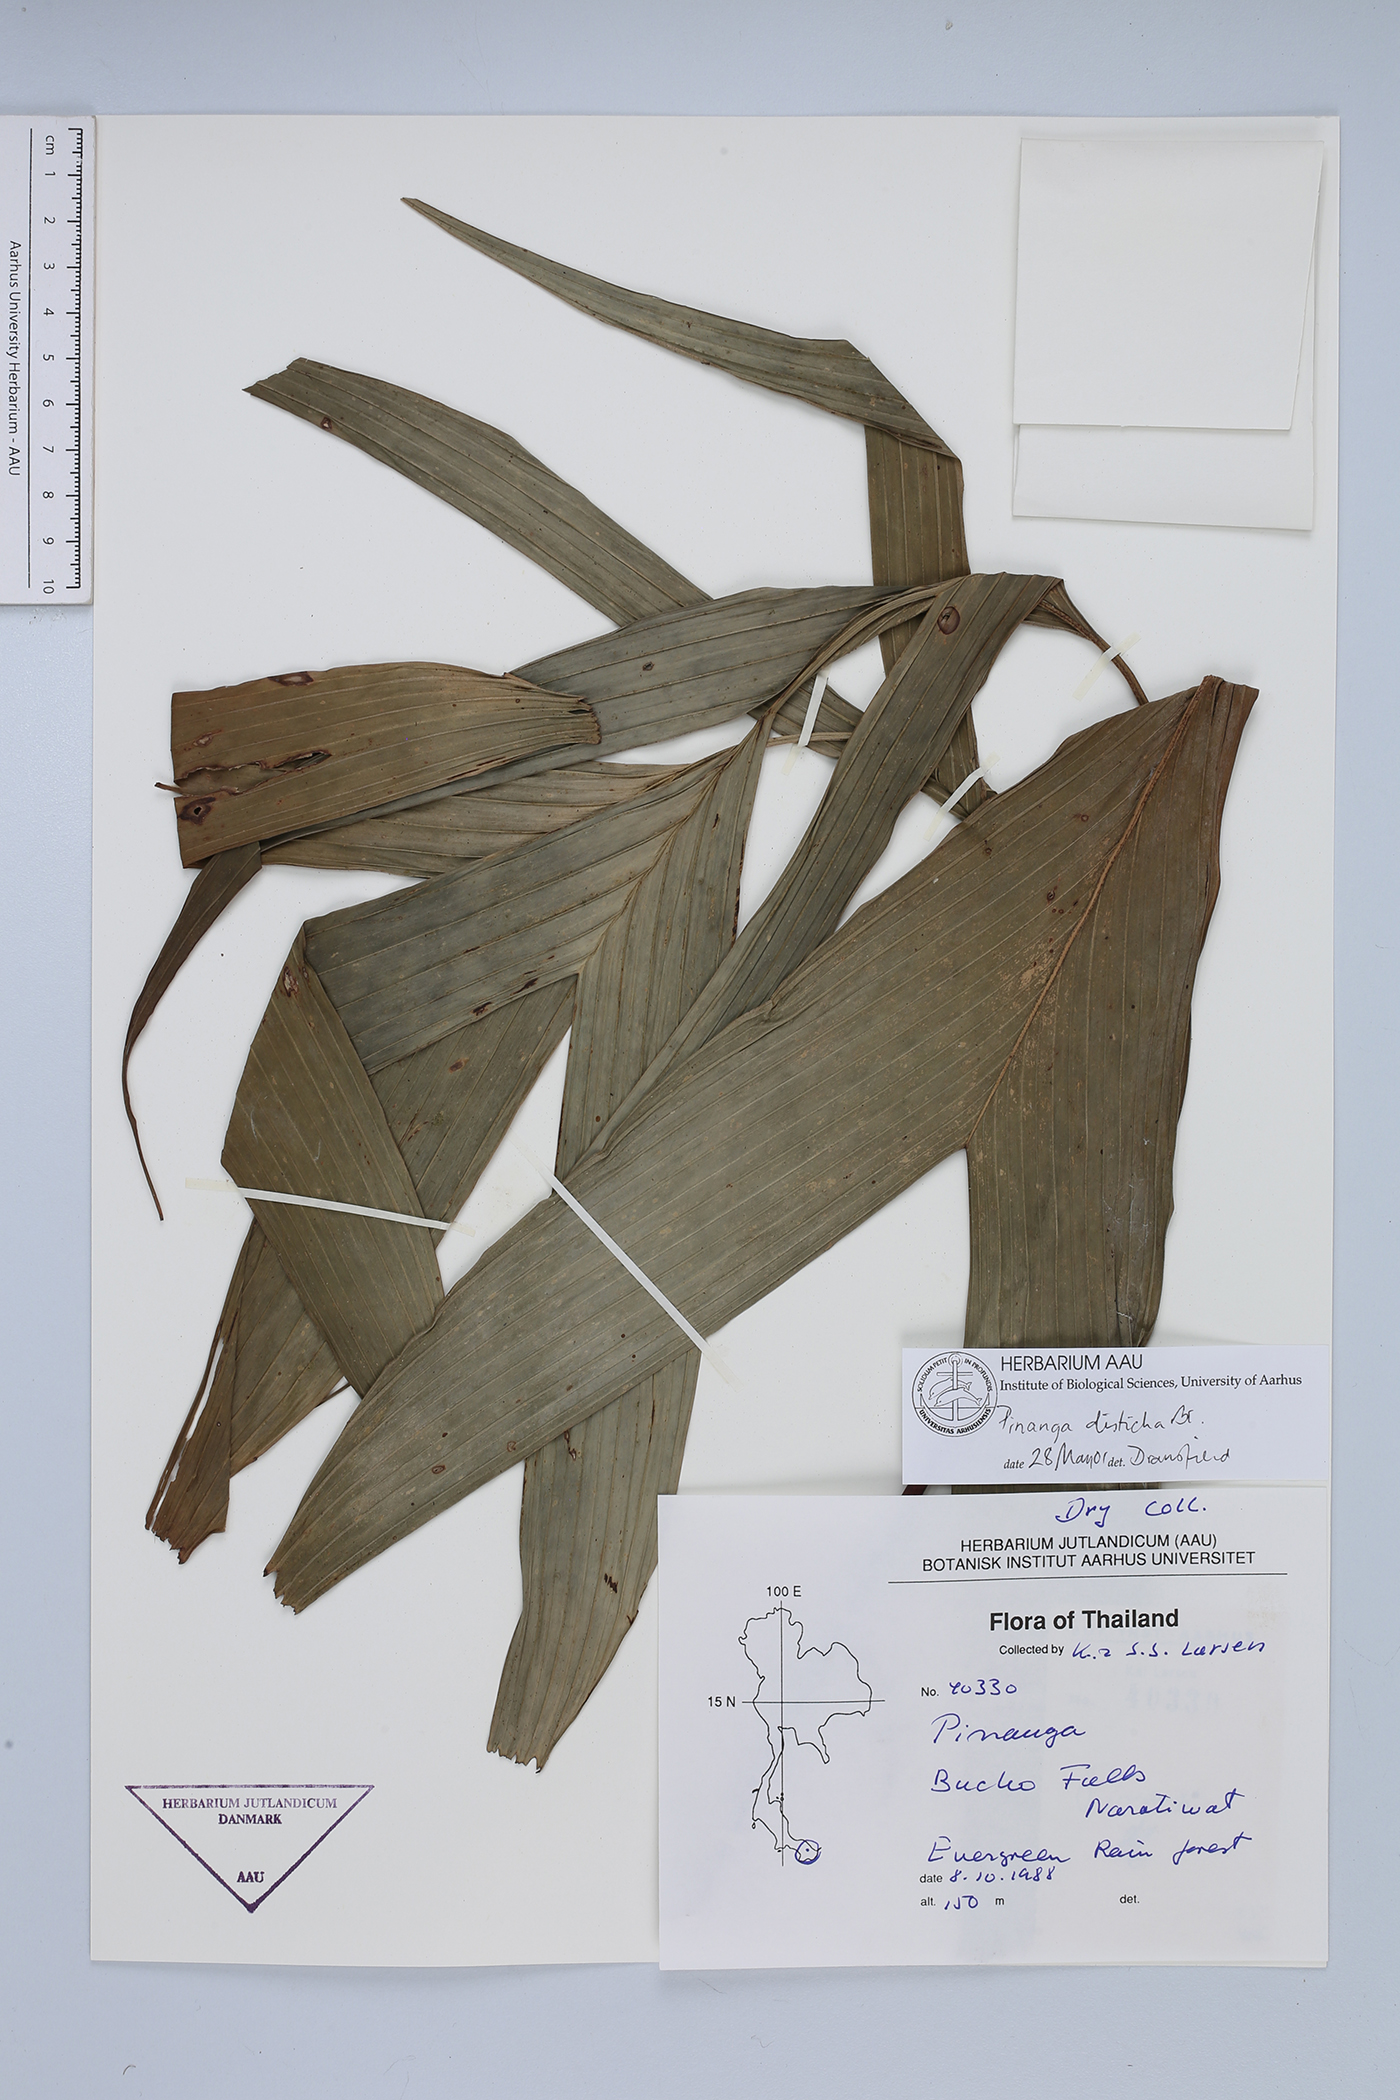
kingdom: Plantae
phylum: Tracheophyta
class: Liliopsida
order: Arecales
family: Arecaceae
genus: Pinanga
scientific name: Pinanga disticha
